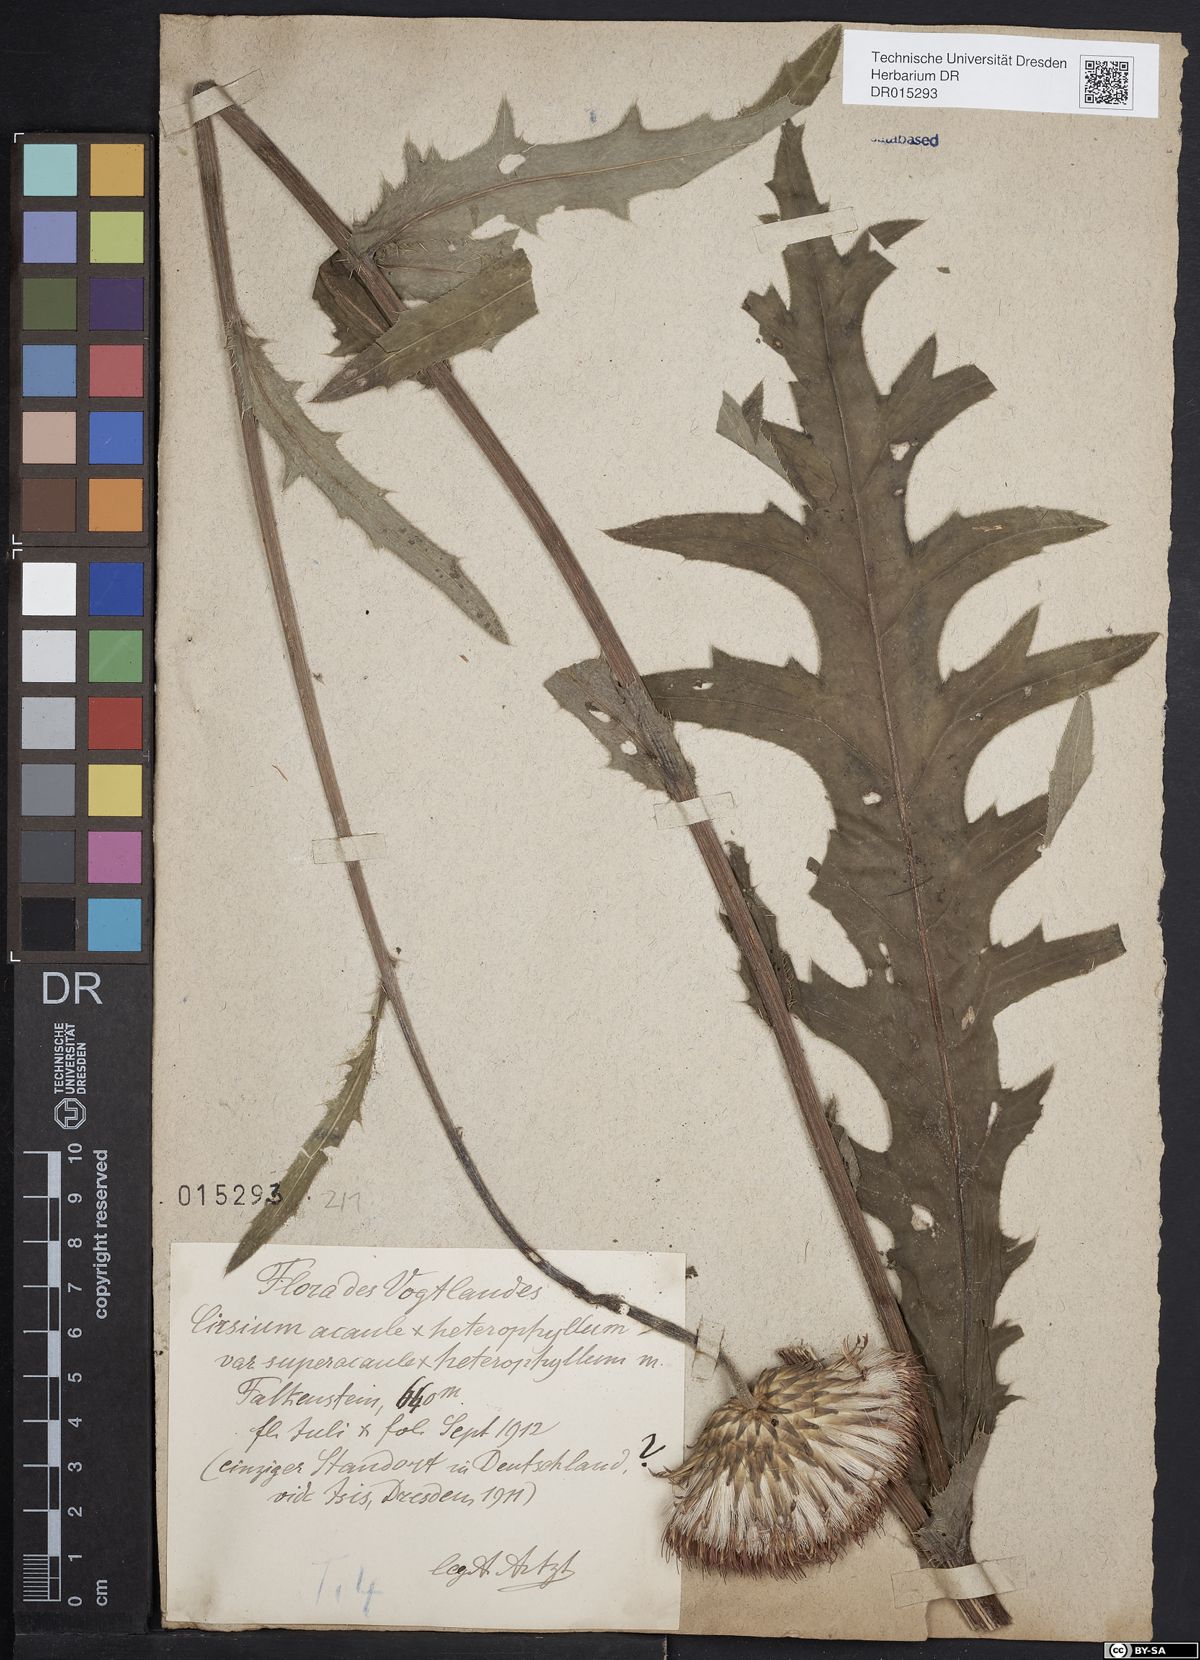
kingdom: Plantae
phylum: Tracheophyta
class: Magnoliopsida
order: Asterales
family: Asteraceae
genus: Cirsium
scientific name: Cirsium
